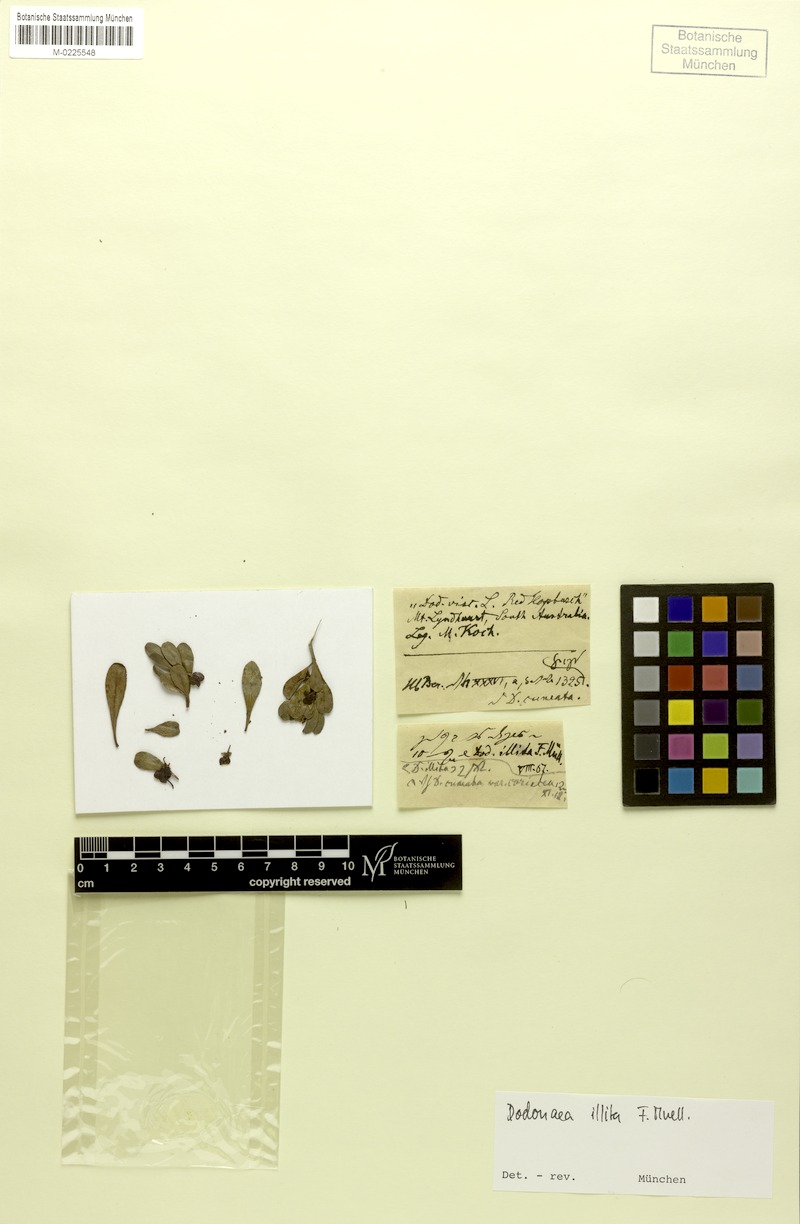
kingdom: Plantae
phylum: Tracheophyta
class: Magnoliopsida
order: Sapindales
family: Sapindaceae
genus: Dodonaea
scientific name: Dodonaea viscosa
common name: Hopbush
